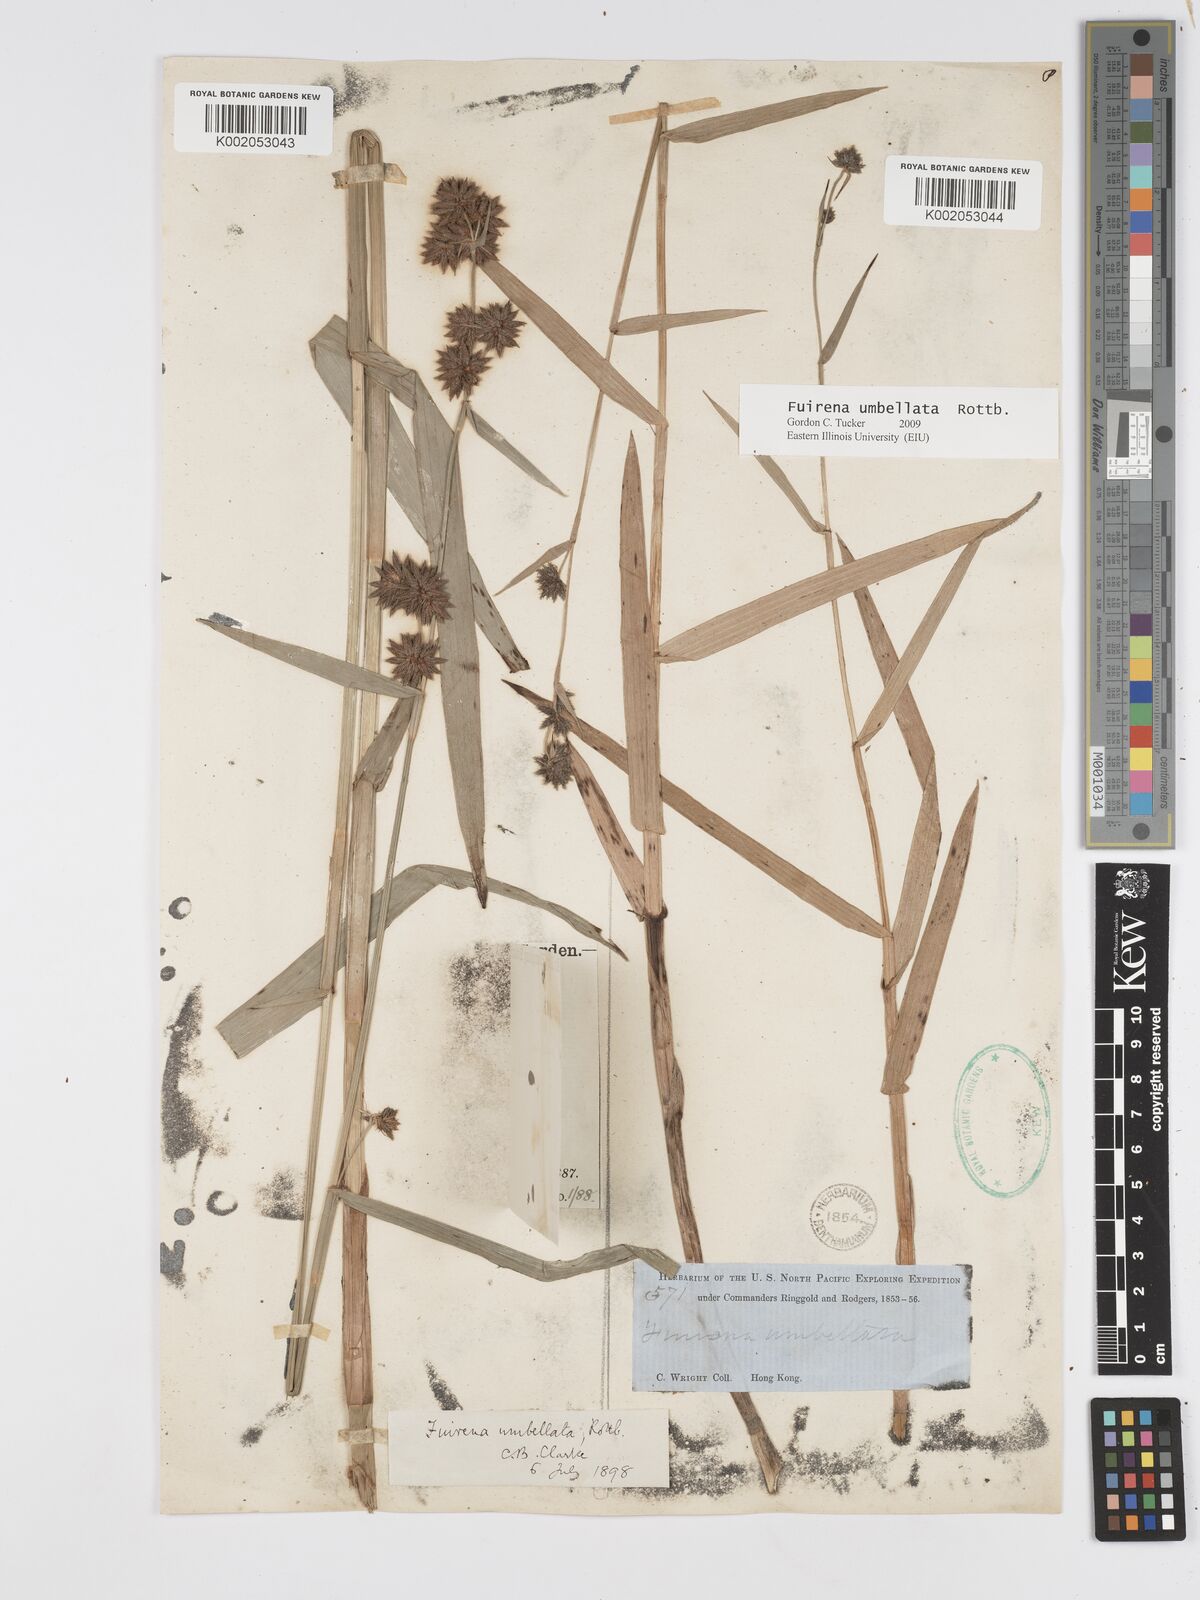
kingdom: Plantae
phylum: Tracheophyta
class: Liliopsida
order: Poales
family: Cyperaceae
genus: Fuirena
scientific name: Fuirena umbellata
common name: Yefen
